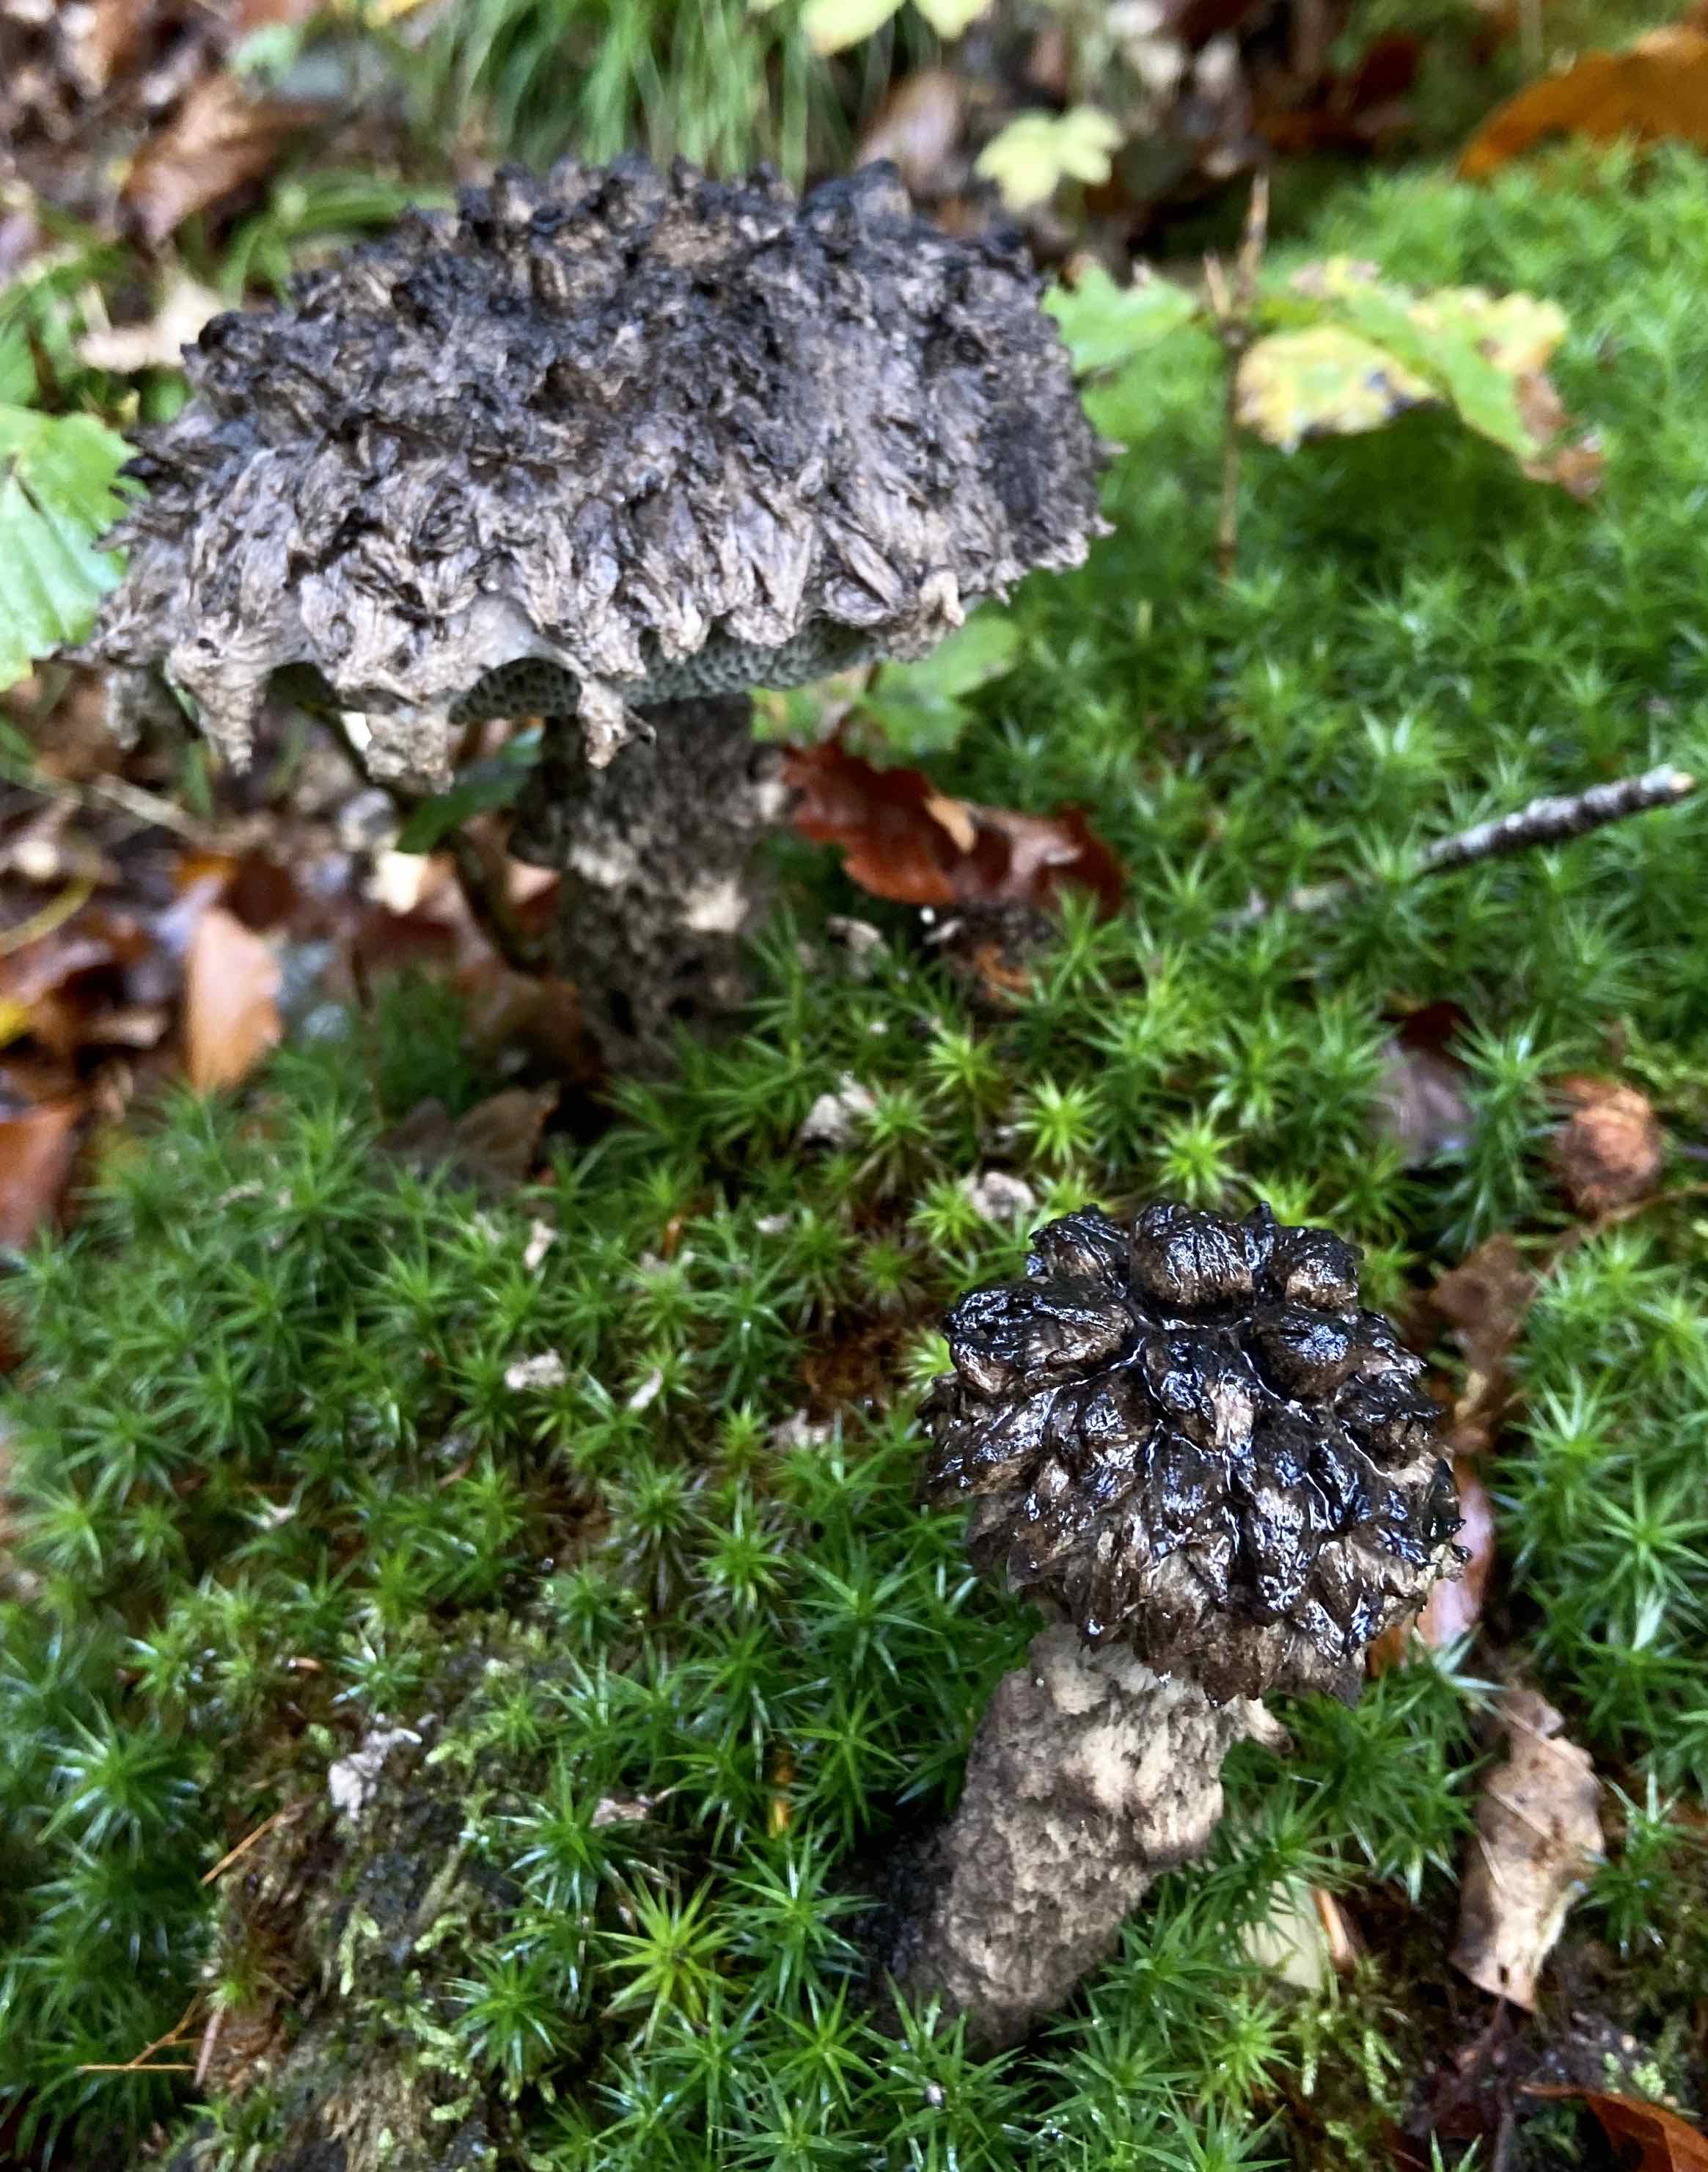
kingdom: Fungi
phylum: Basidiomycota
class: Agaricomycetes
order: Boletales
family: Boletaceae
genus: Strobilomyces
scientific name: Strobilomyces strobilaceus
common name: koglerørhat
